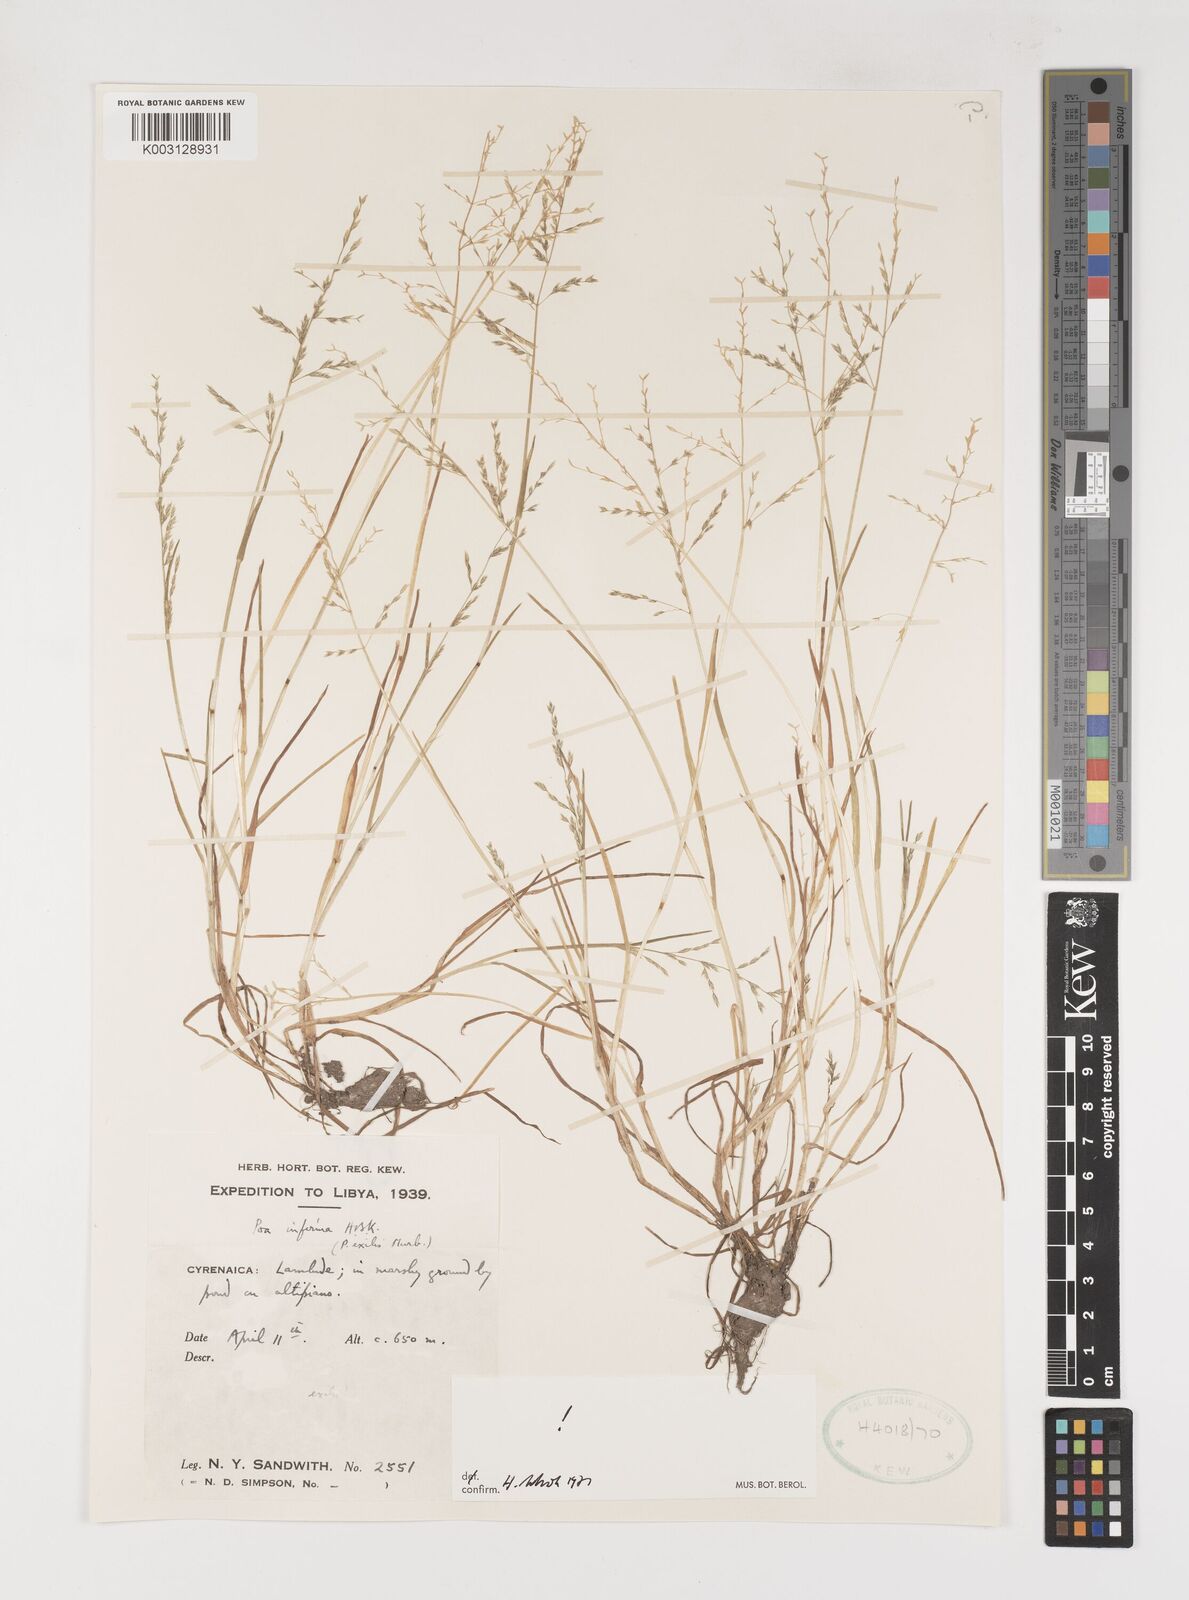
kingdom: Plantae
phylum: Tracheophyta
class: Liliopsida
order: Poales
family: Poaceae
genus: Poa
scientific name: Poa infirma
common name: Weak bluegrass
